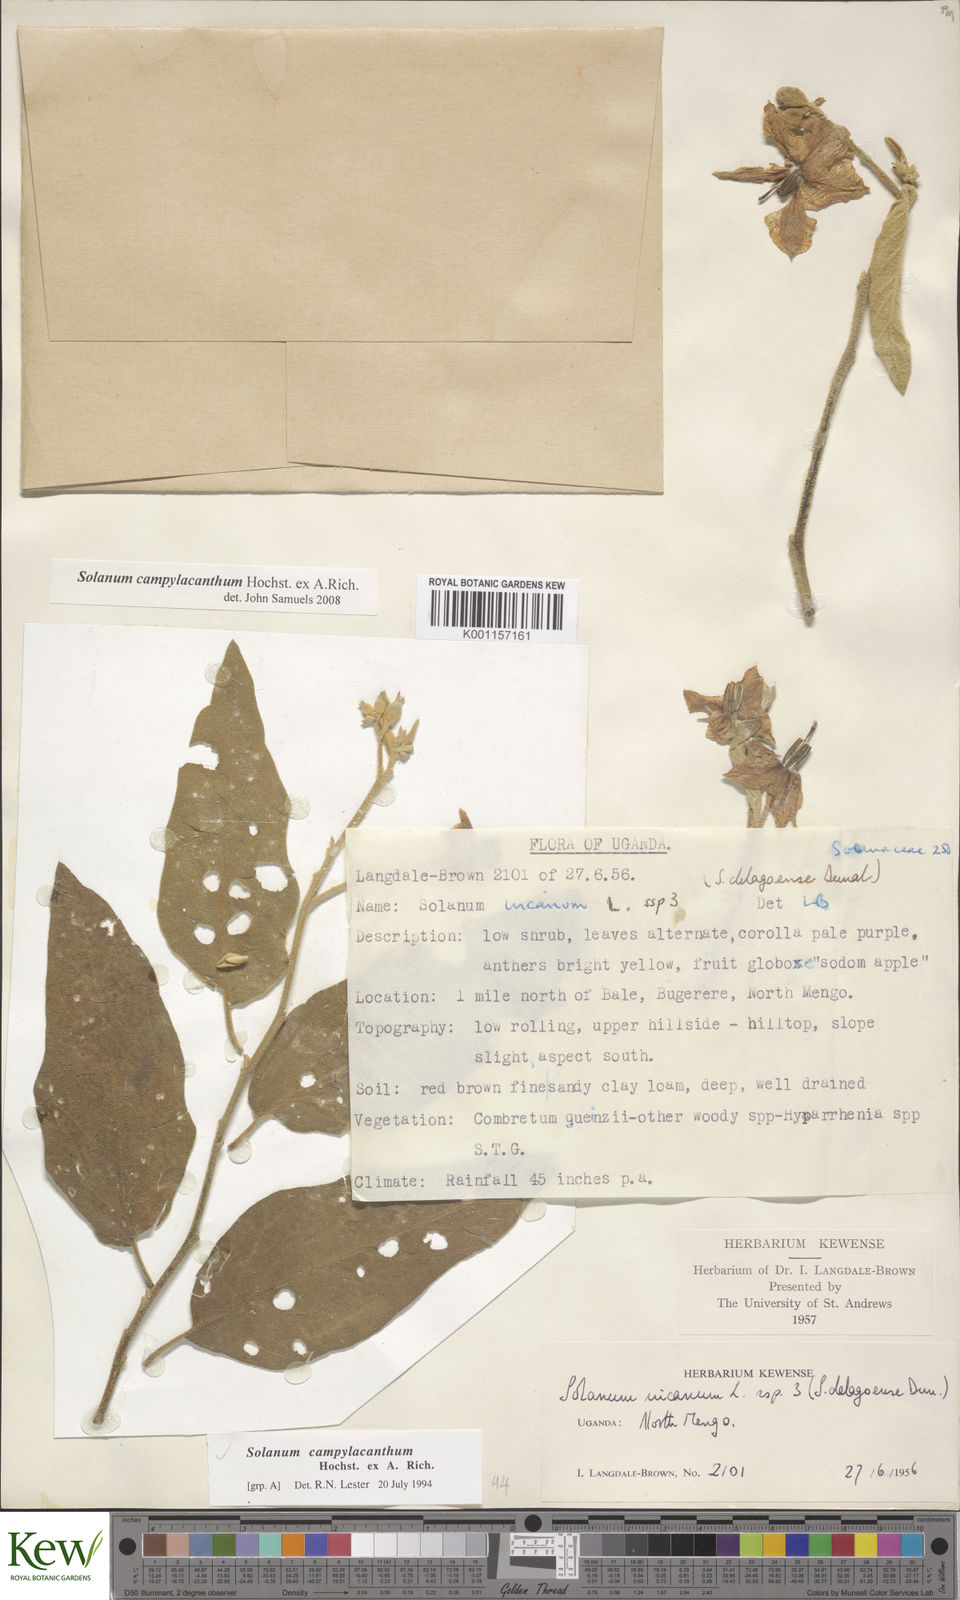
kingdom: Plantae
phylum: Tracheophyta
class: Magnoliopsida
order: Solanales
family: Solanaceae
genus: Solanum
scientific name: Solanum campylacanthum
